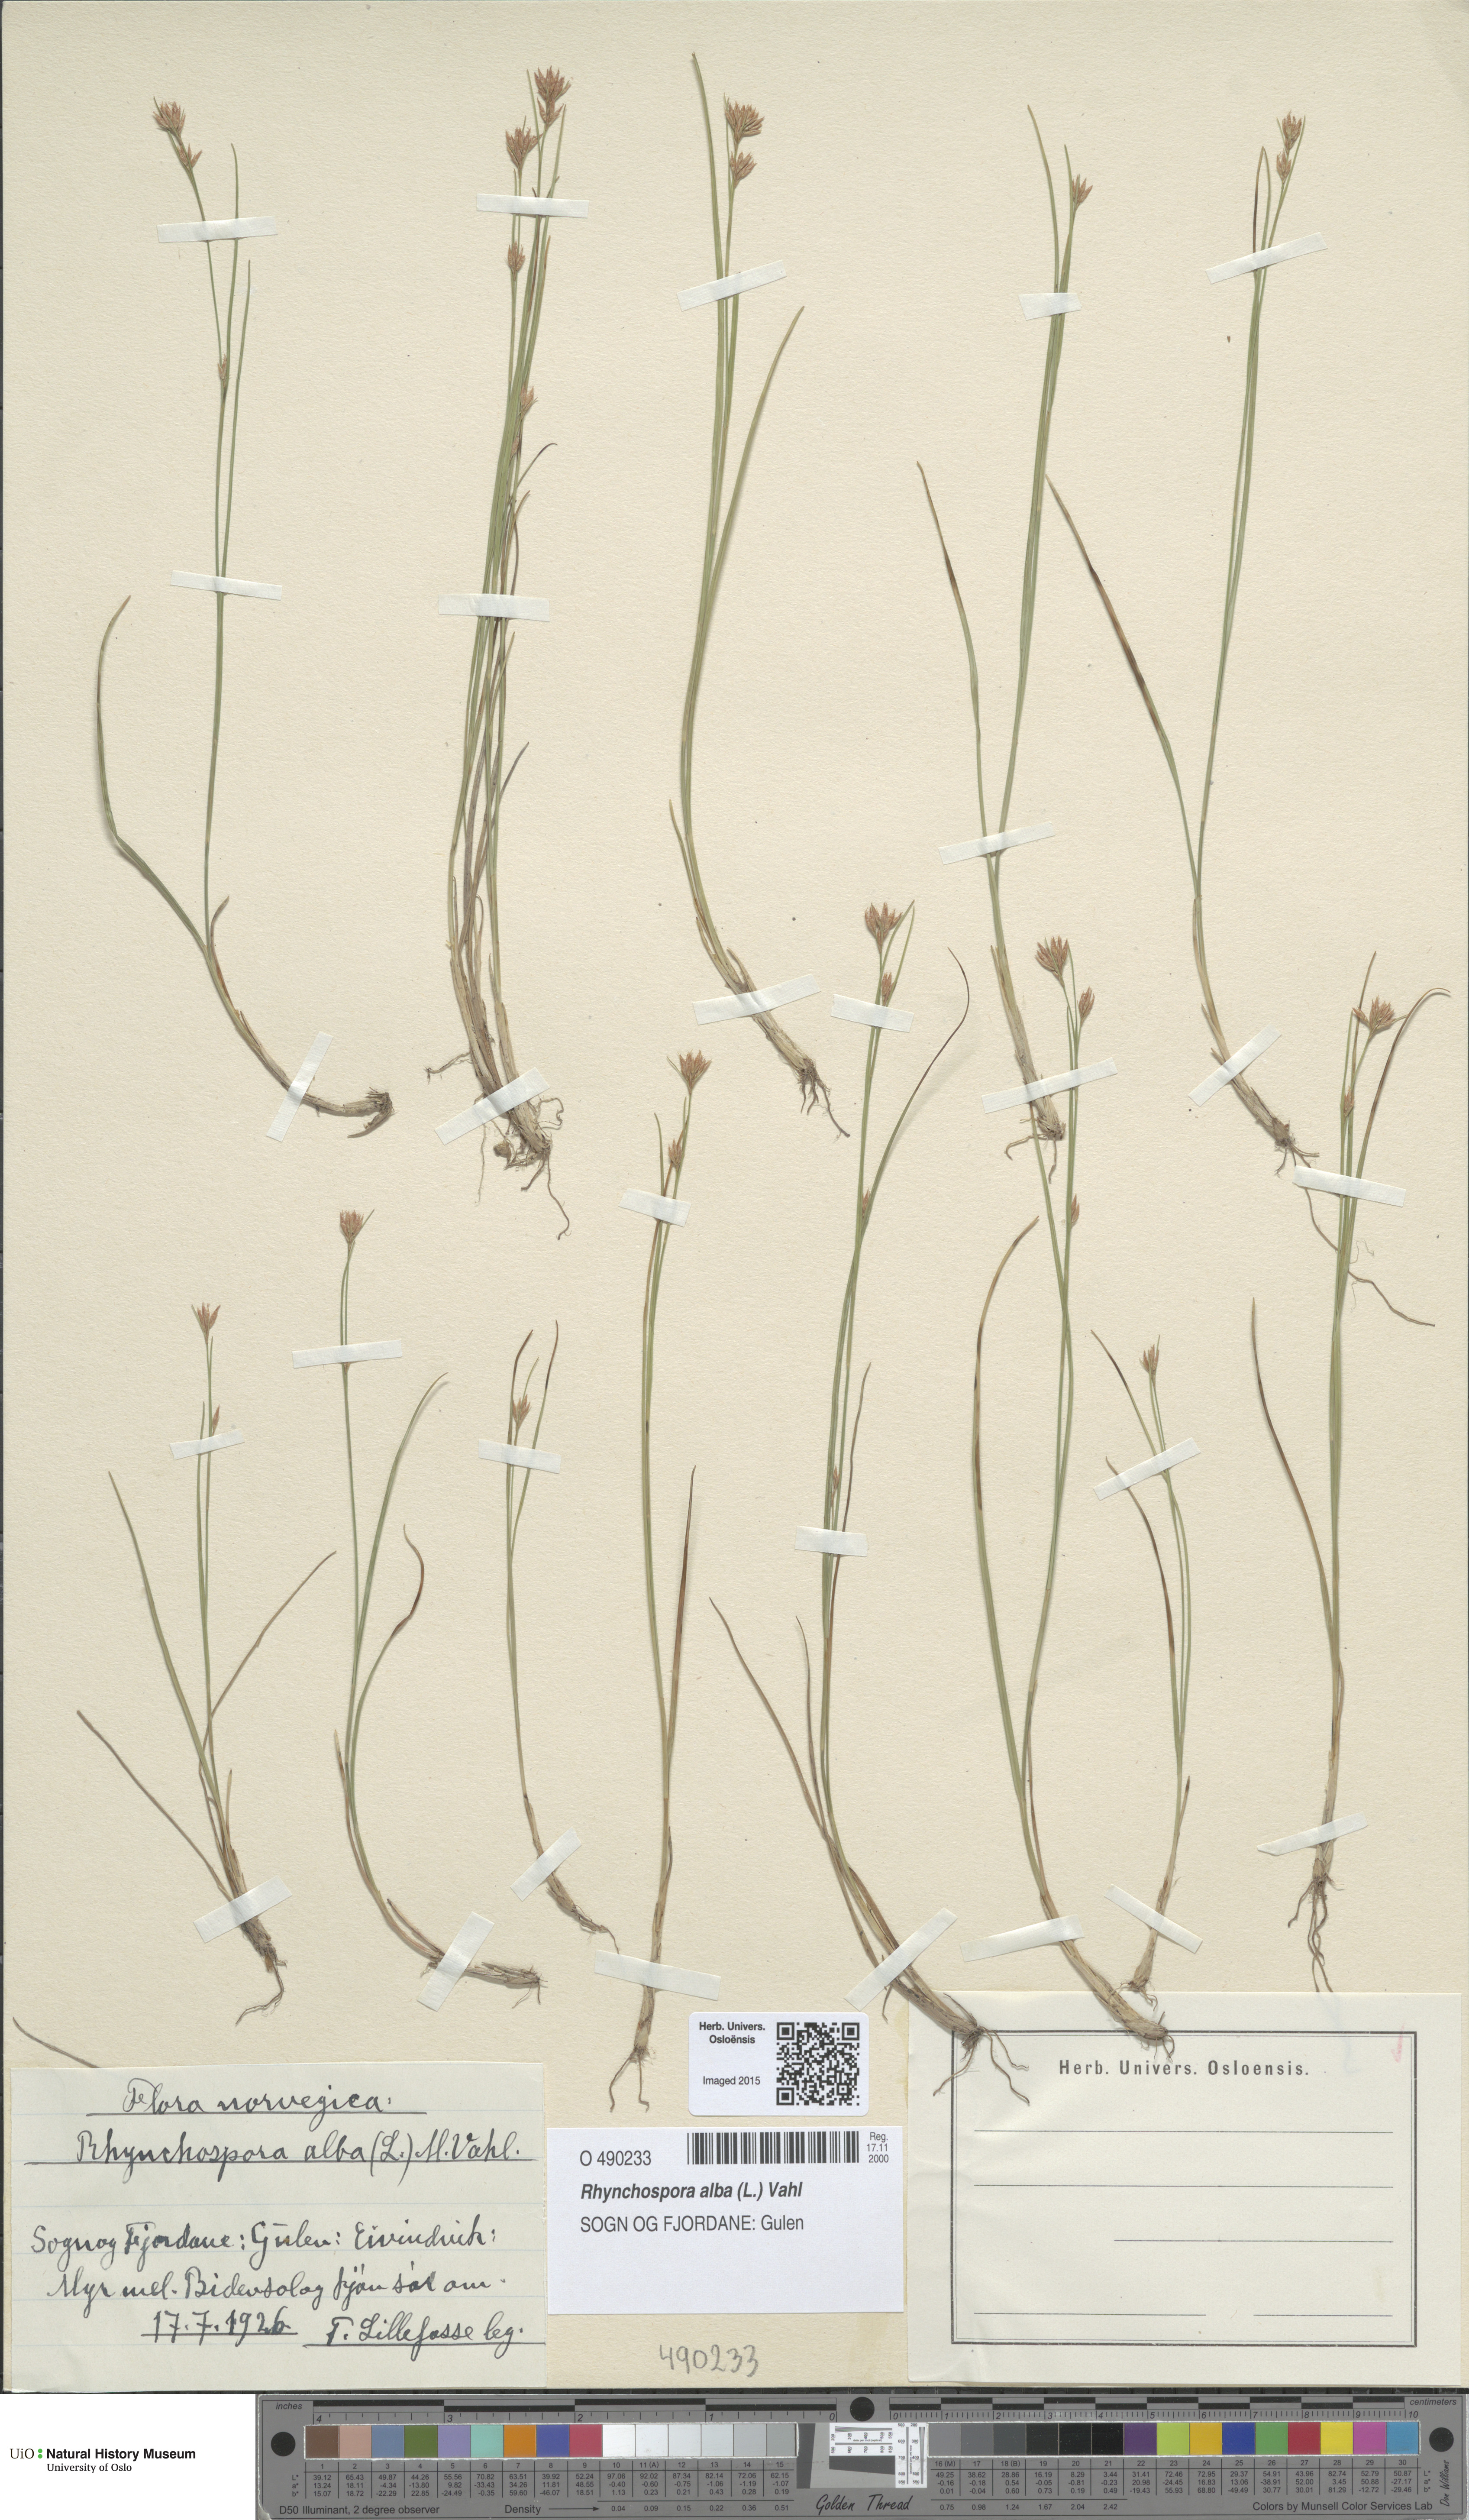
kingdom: Plantae
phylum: Tracheophyta
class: Liliopsida
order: Poales
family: Cyperaceae
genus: Rhynchospora
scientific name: Rhynchospora alba
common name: White beak-sedge
